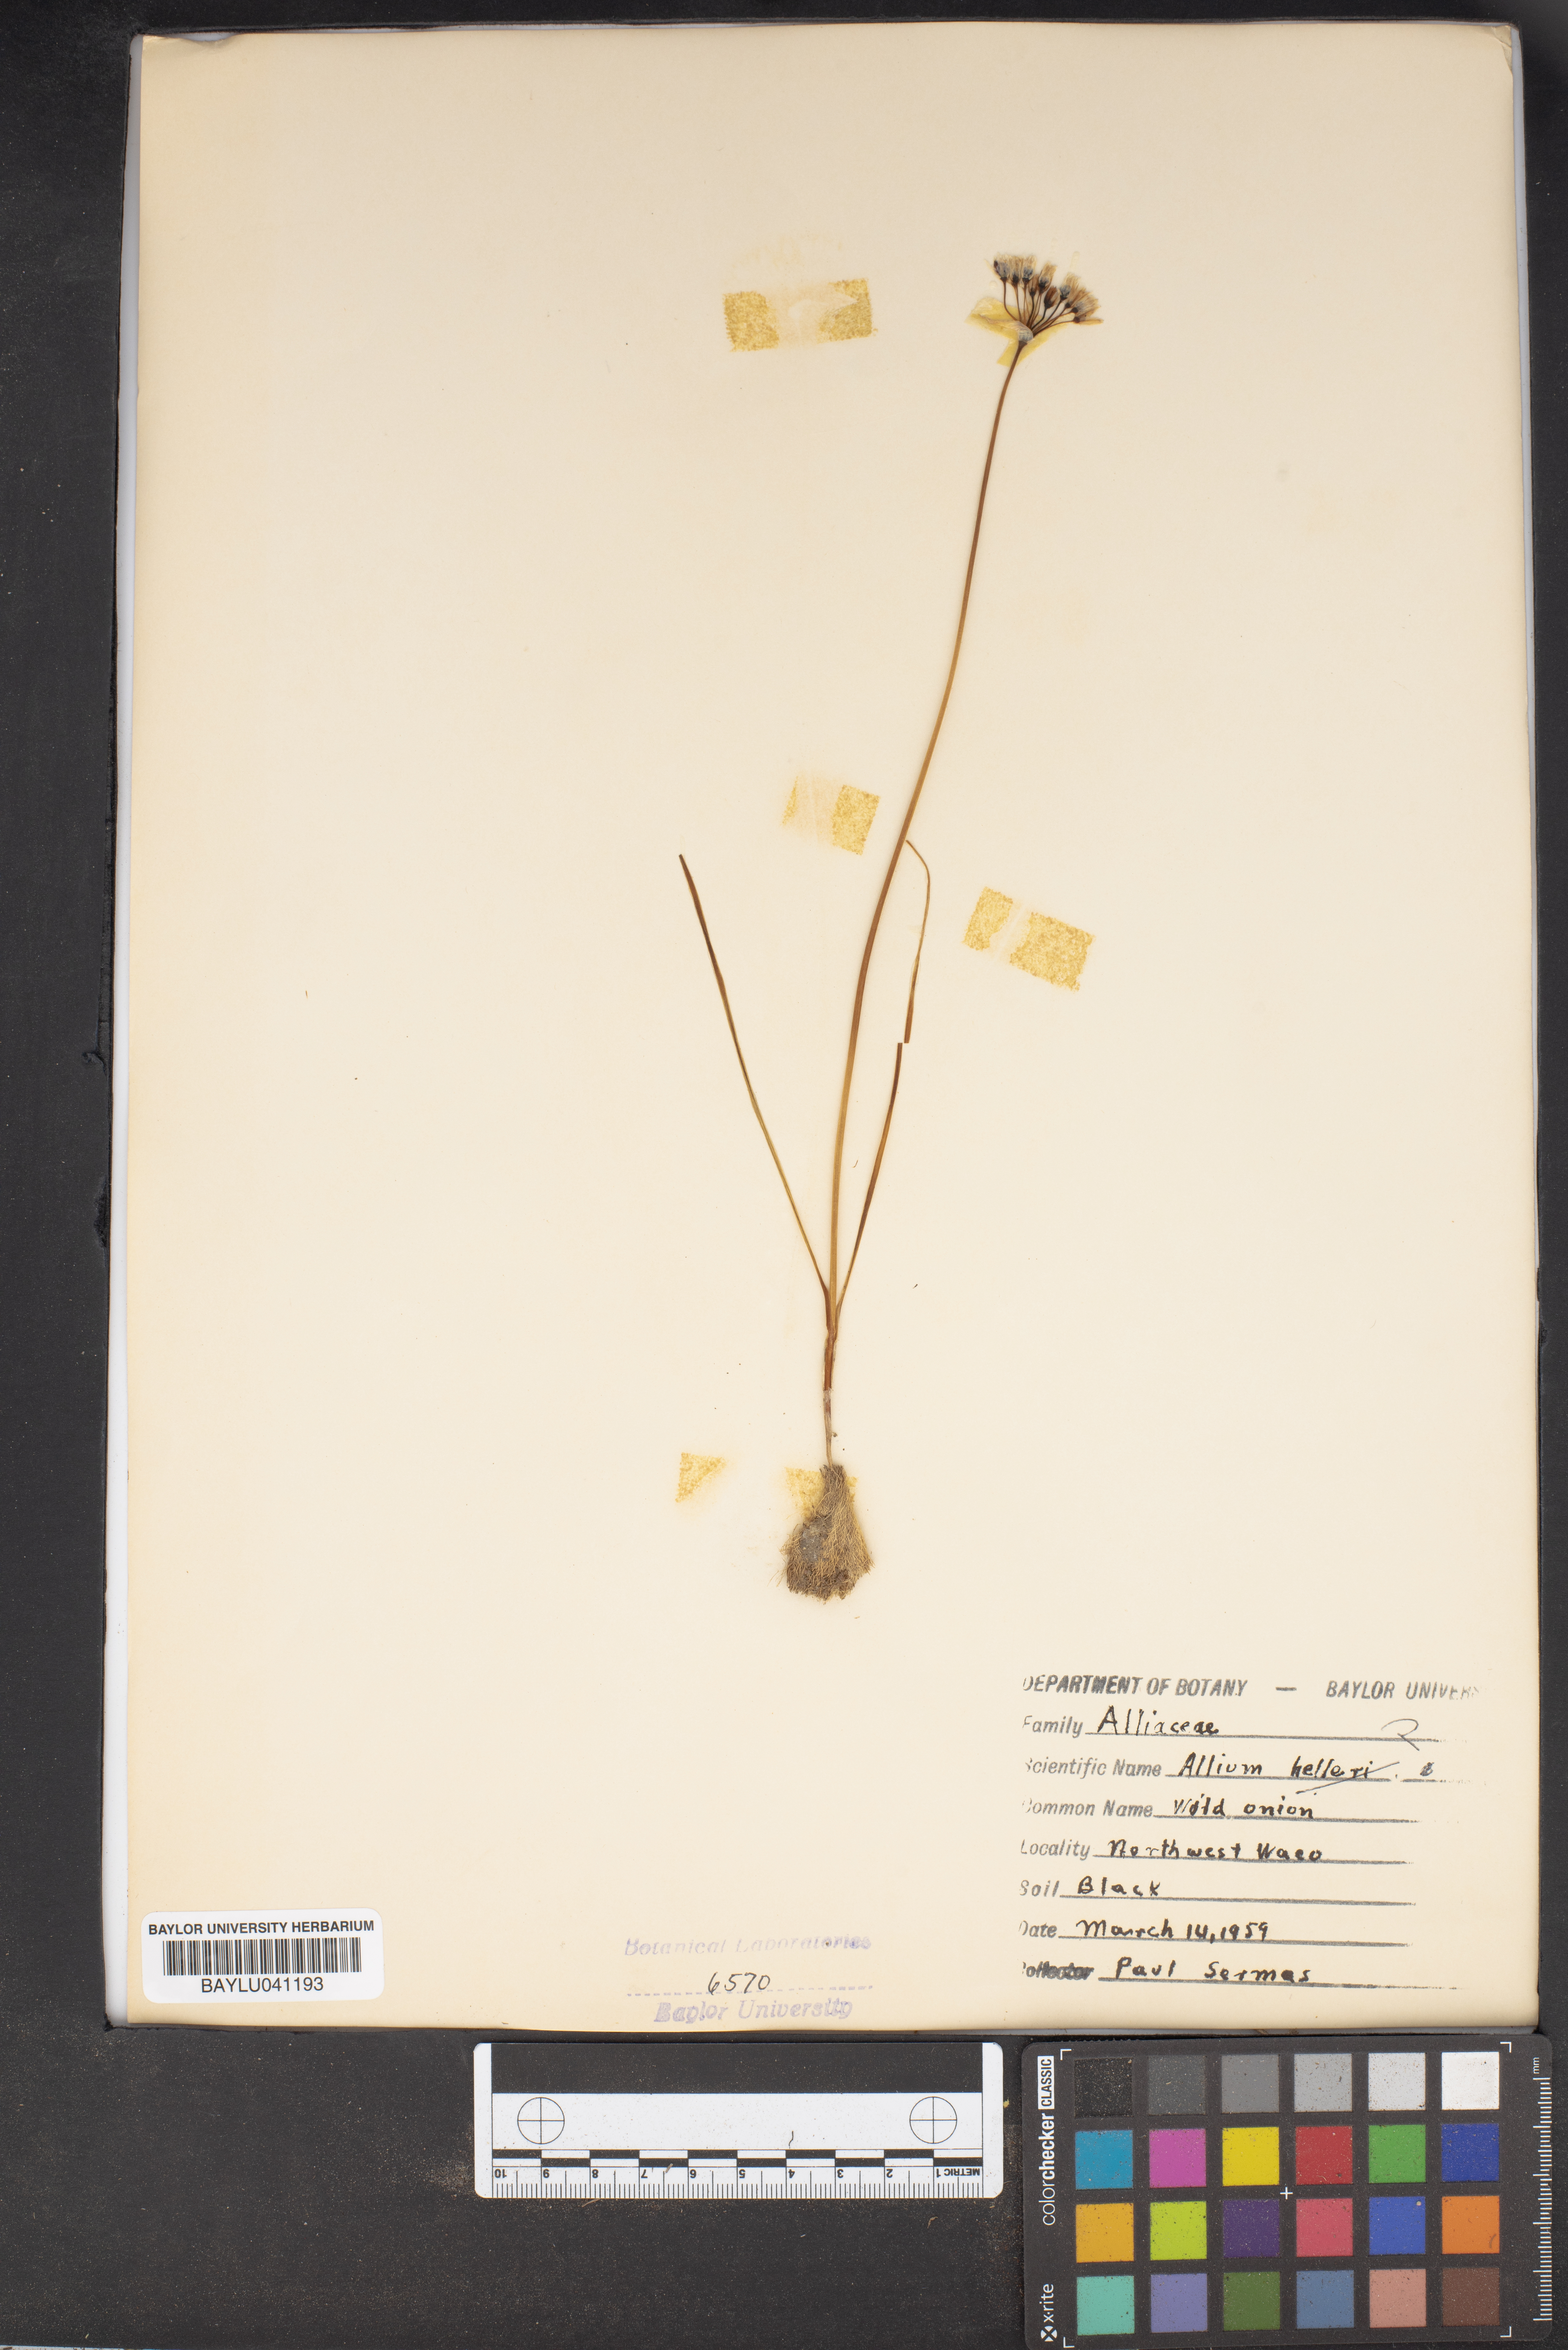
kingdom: Plantae
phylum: Tracheophyta
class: Liliopsida
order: Asparagales
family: Amaryllidaceae
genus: Allium
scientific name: Allium drummondii
